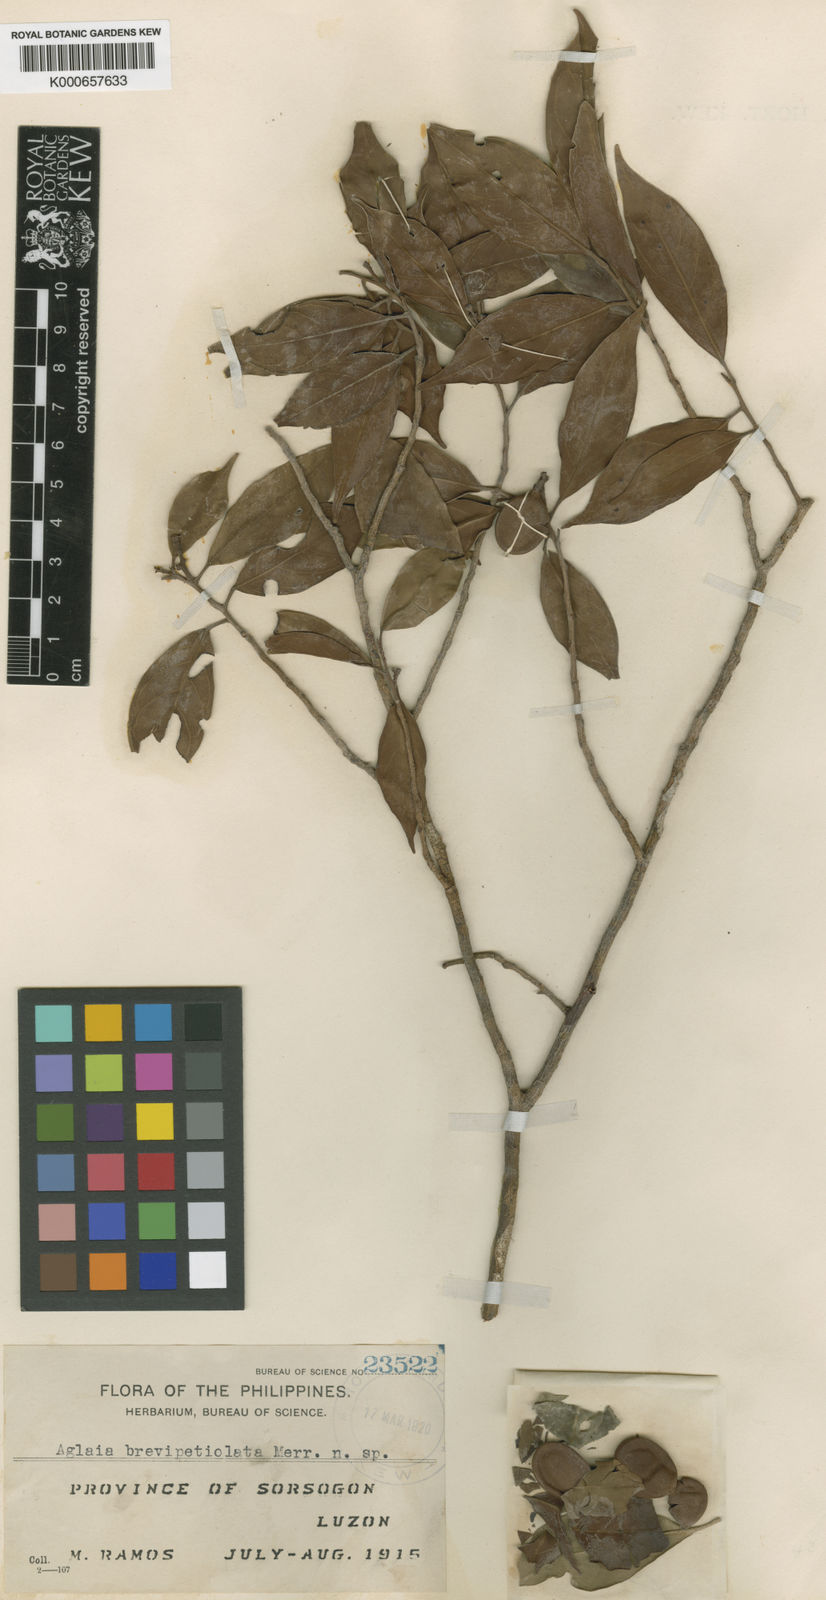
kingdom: Plantae
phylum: Tracheophyta
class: Magnoliopsida
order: Sapindales
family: Meliaceae
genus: Aglaia
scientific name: Aglaia luzoniensis
